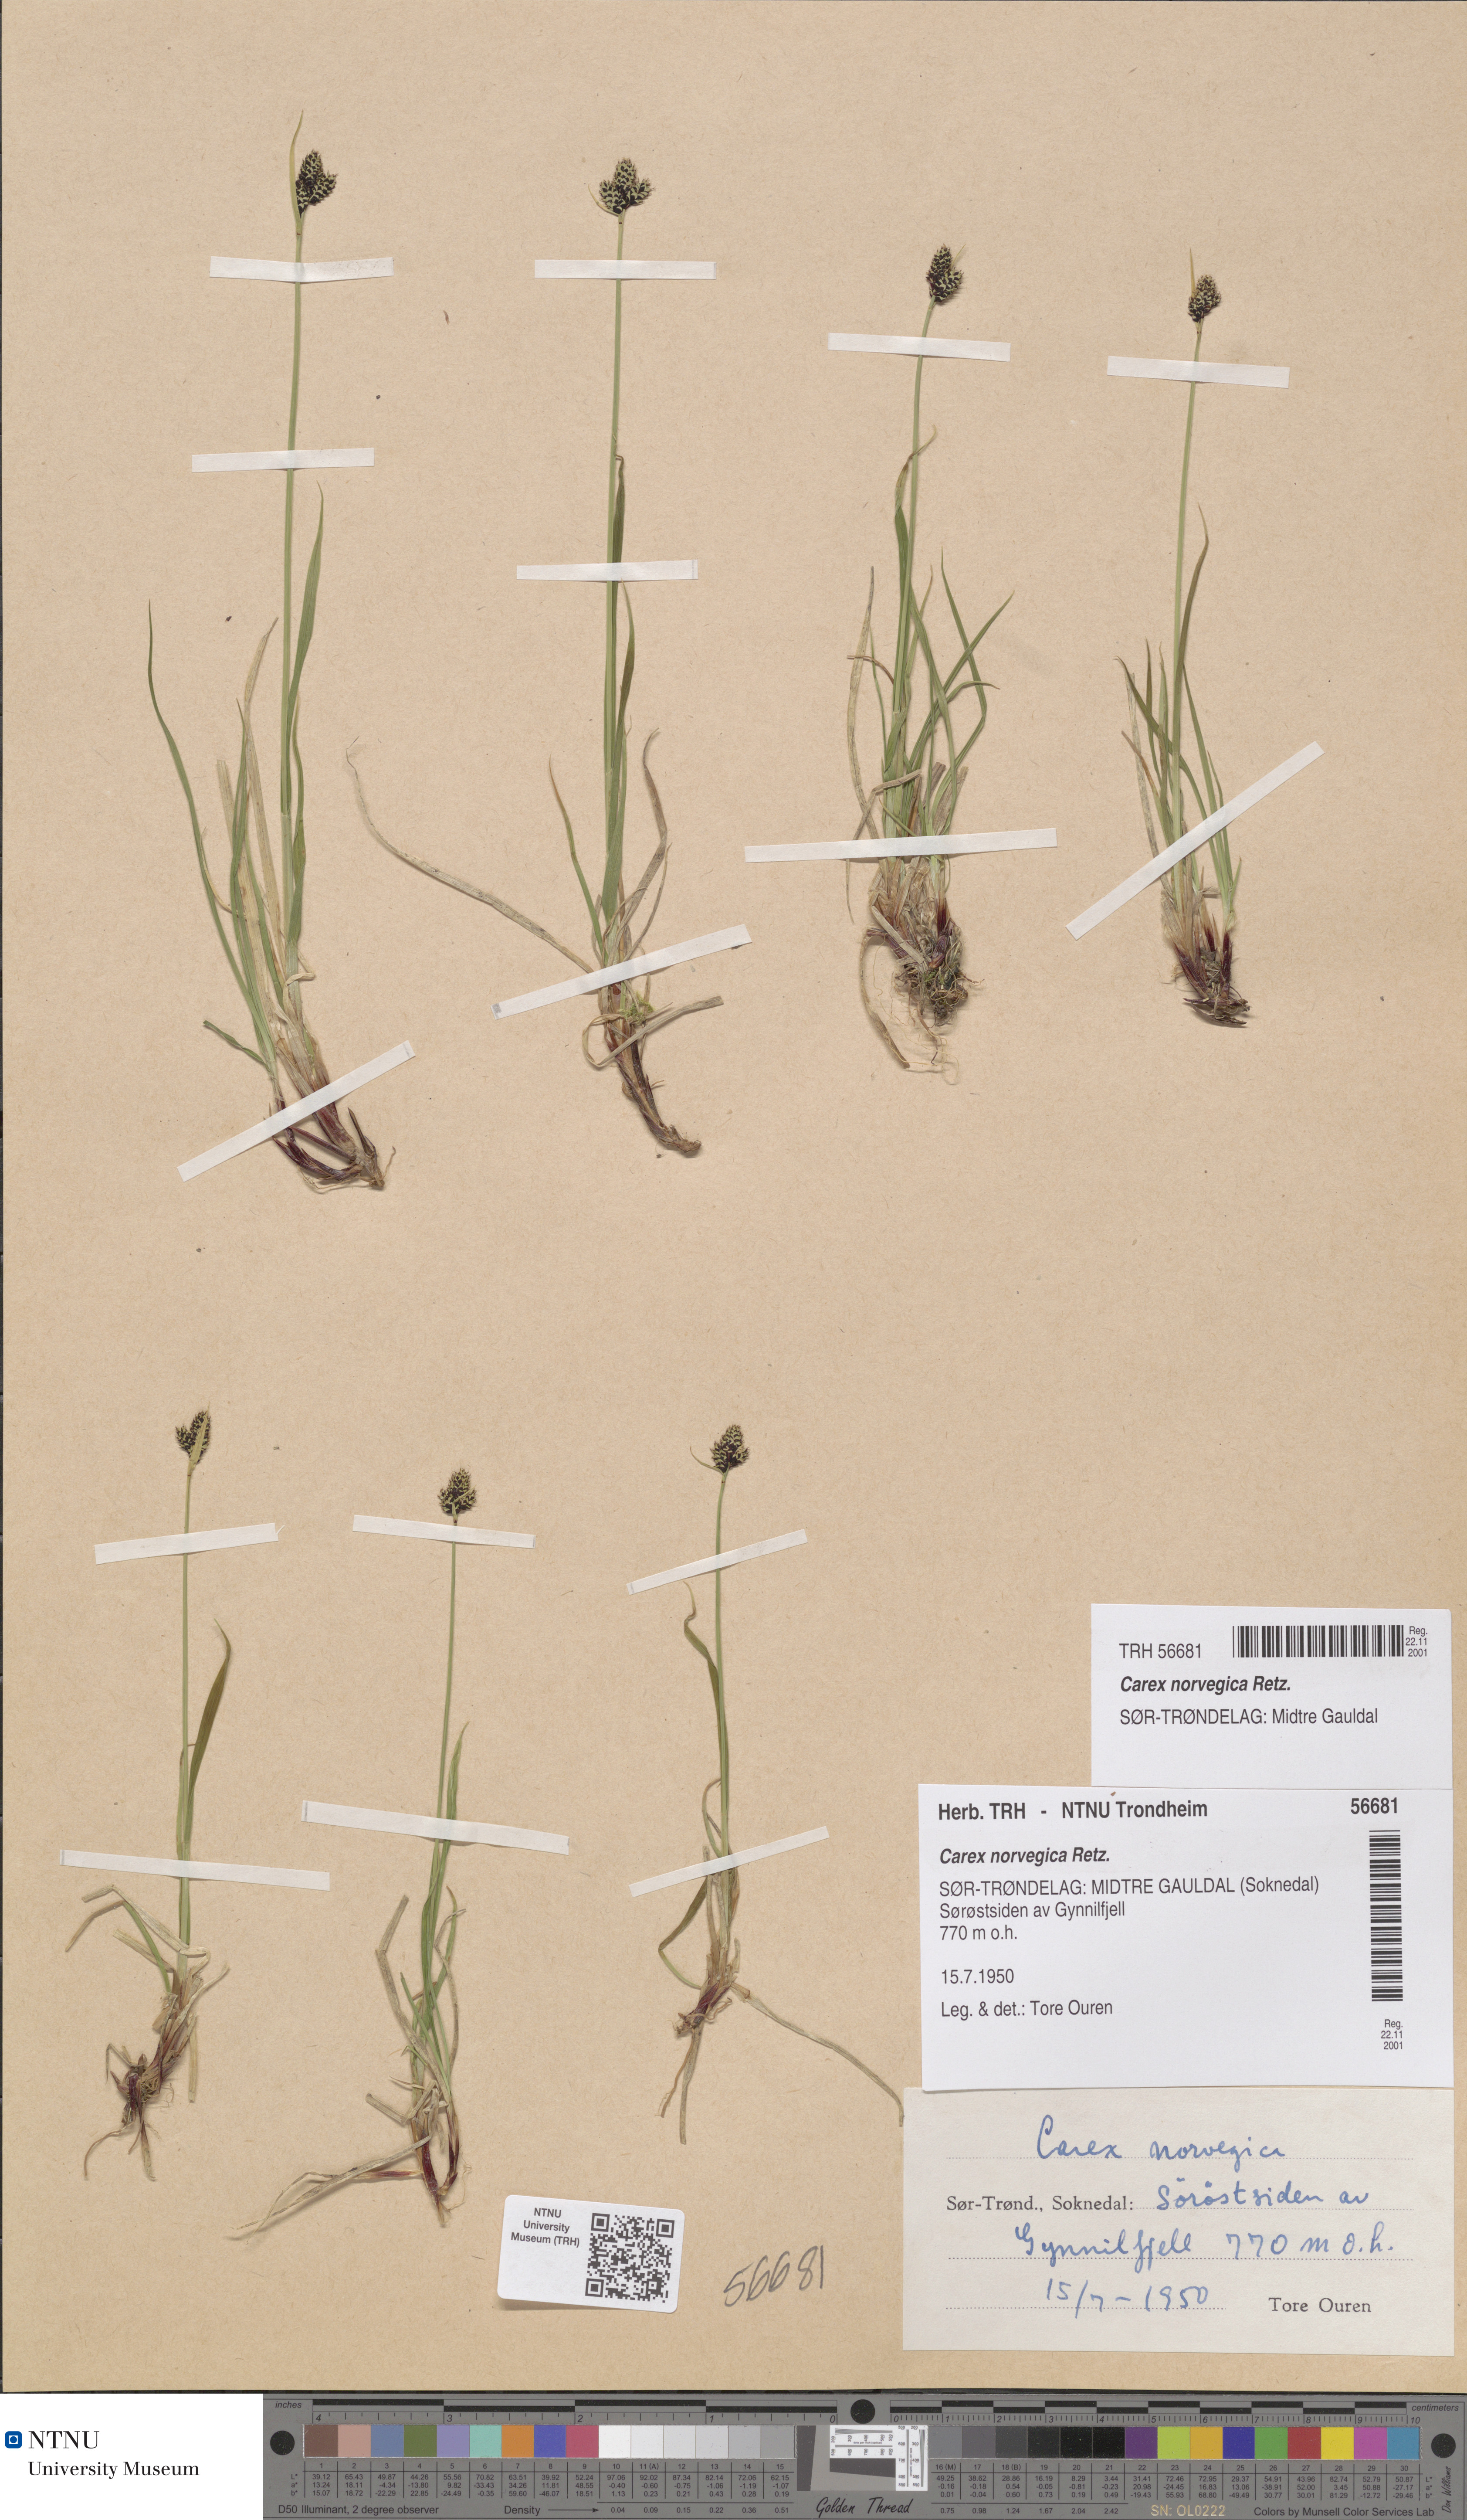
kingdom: Plantae
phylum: Tracheophyta
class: Liliopsida
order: Poales
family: Cyperaceae
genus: Carex
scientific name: Carex norvegica
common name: Close-headed alpine-sedge
